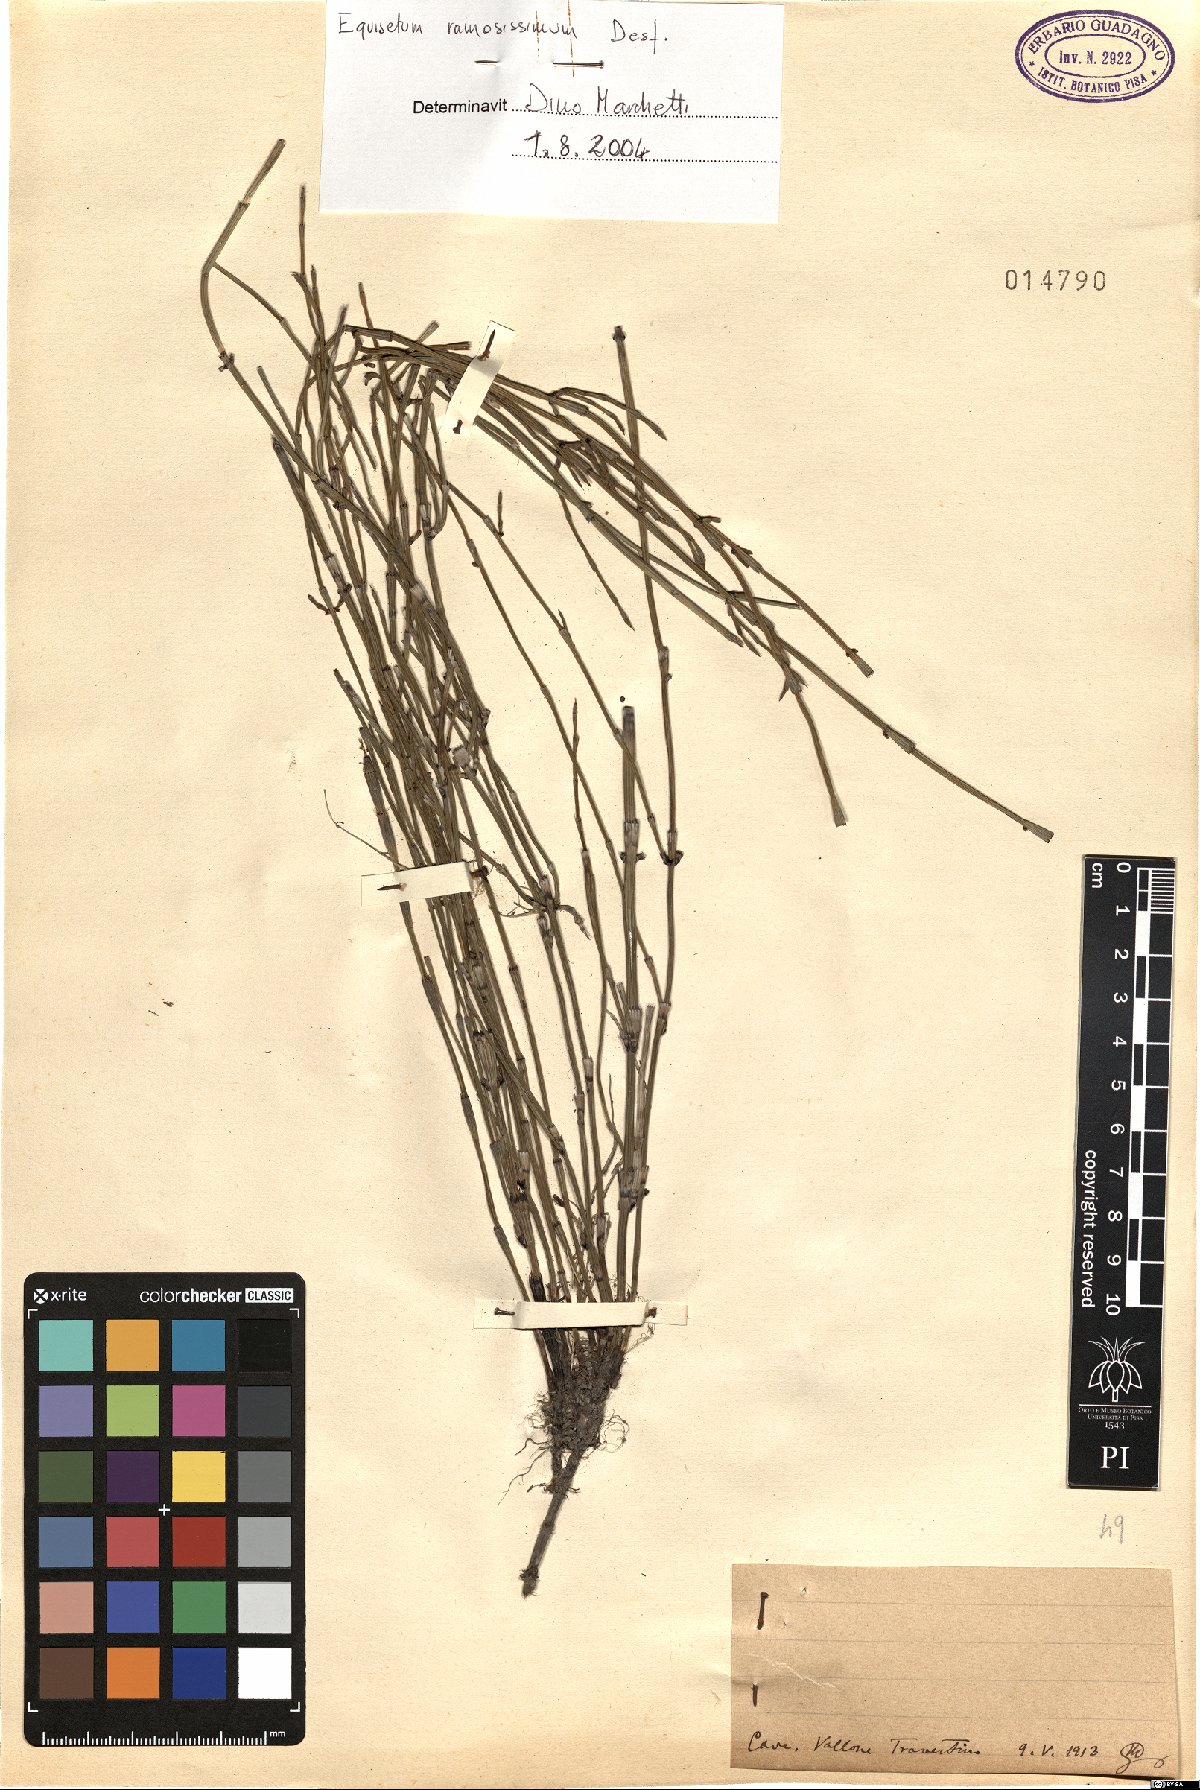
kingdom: Plantae
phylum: Tracheophyta
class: Polypodiopsida
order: Equisetales
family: Equisetaceae
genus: Equisetum
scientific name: Equisetum ramosissimum
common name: Branched horsetail
